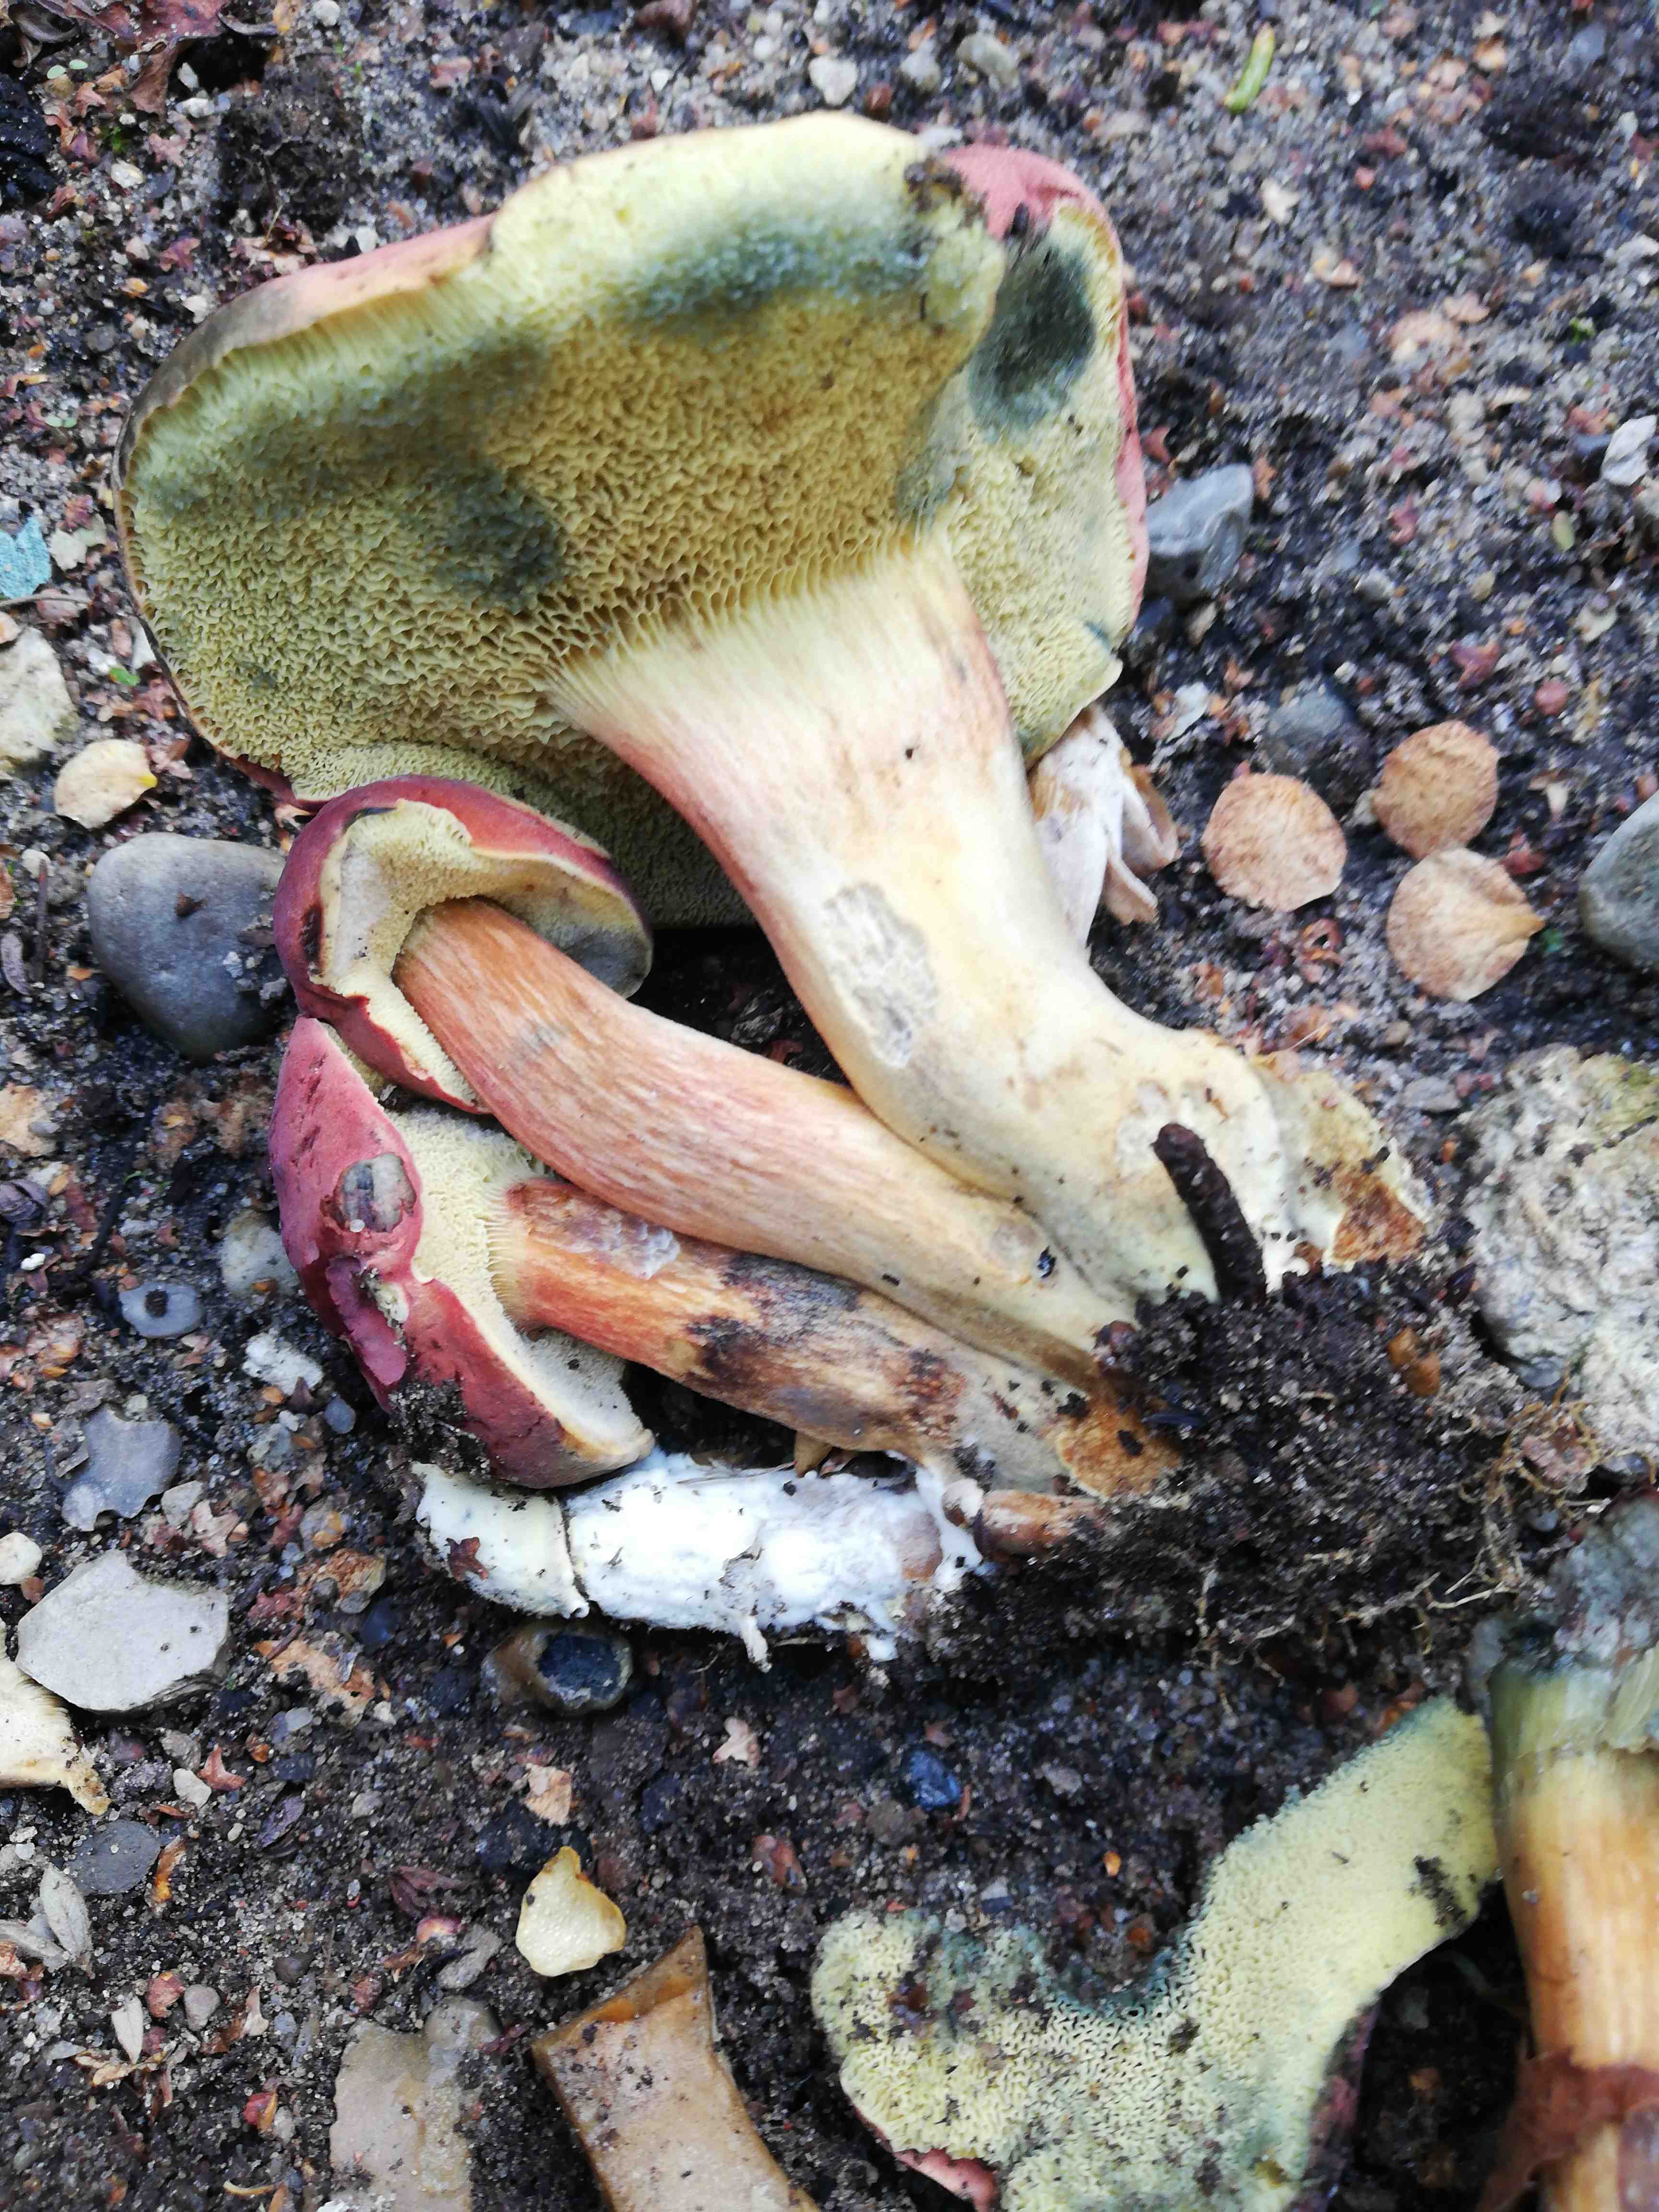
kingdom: Fungi
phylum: Basidiomycota
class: Agaricomycetes
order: Boletales
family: Boletaceae
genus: Hortiboletus
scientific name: Hortiboletus rubellus
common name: blodrød rørhat
